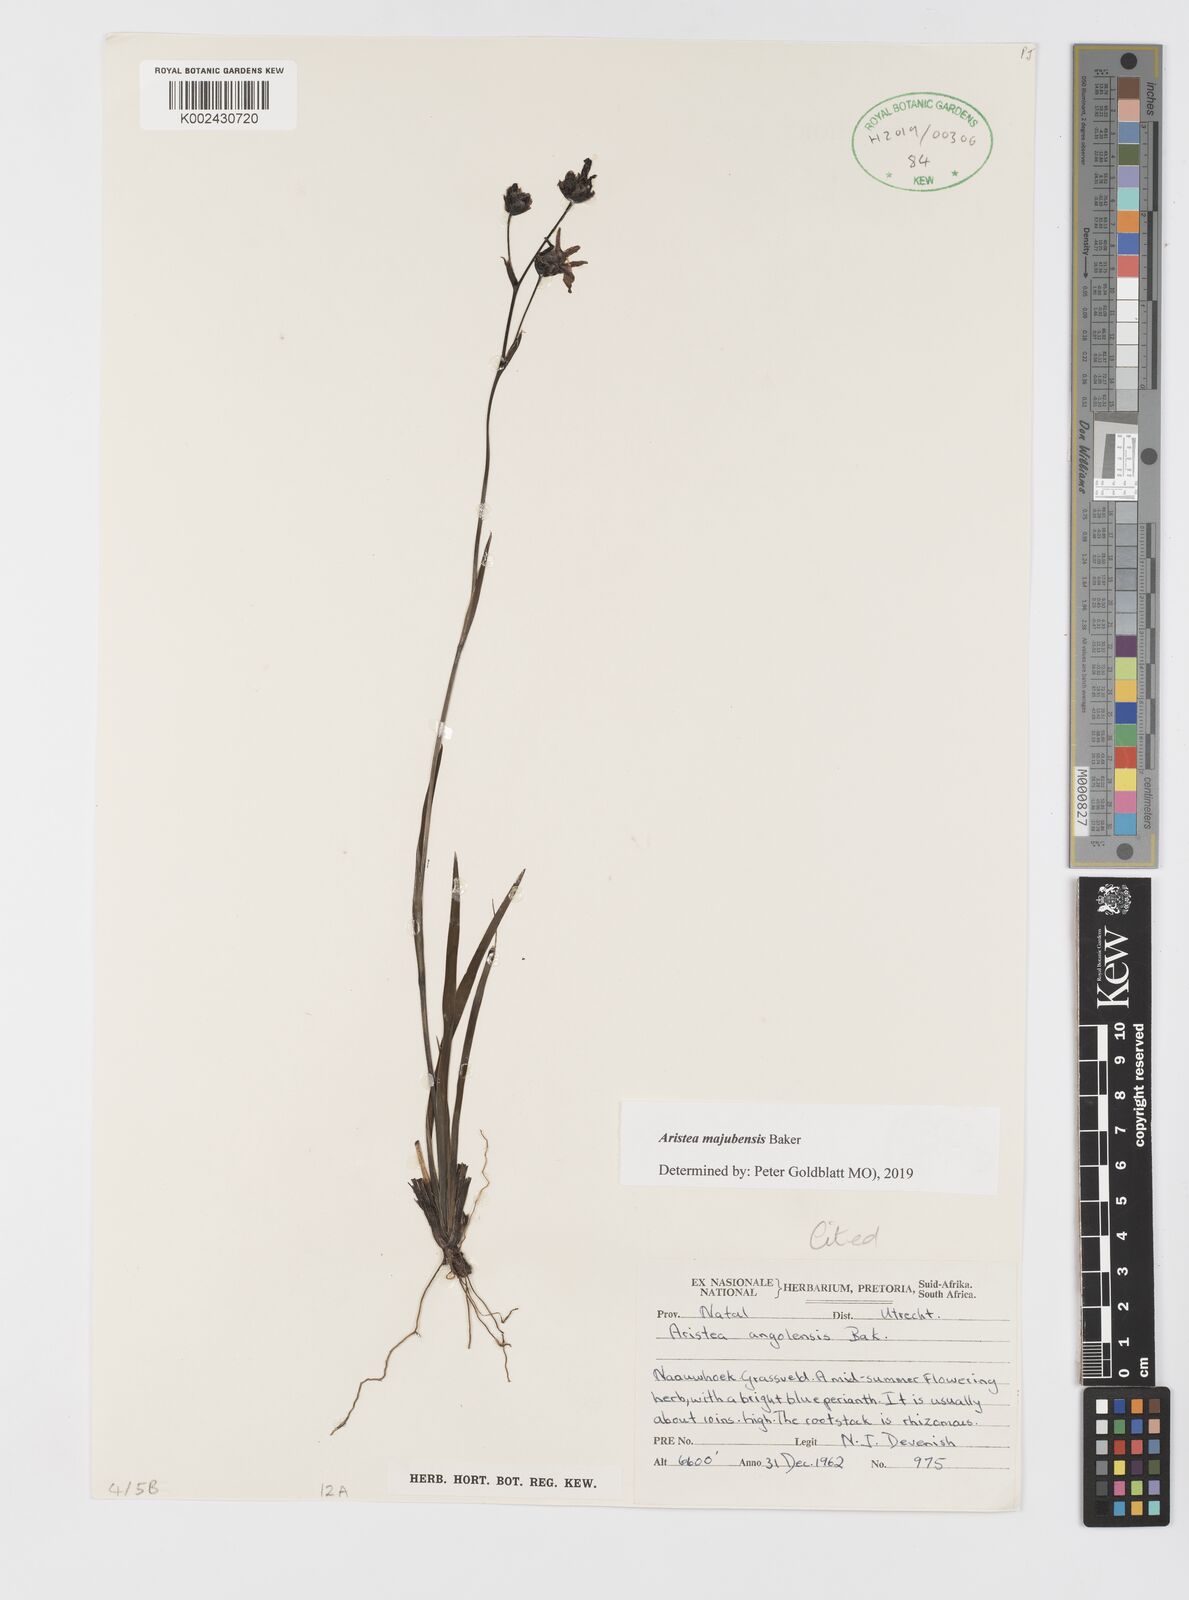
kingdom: Plantae
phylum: Tracheophyta
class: Liliopsida
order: Asparagales
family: Iridaceae
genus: Aristea
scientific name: Aristea majubensis
